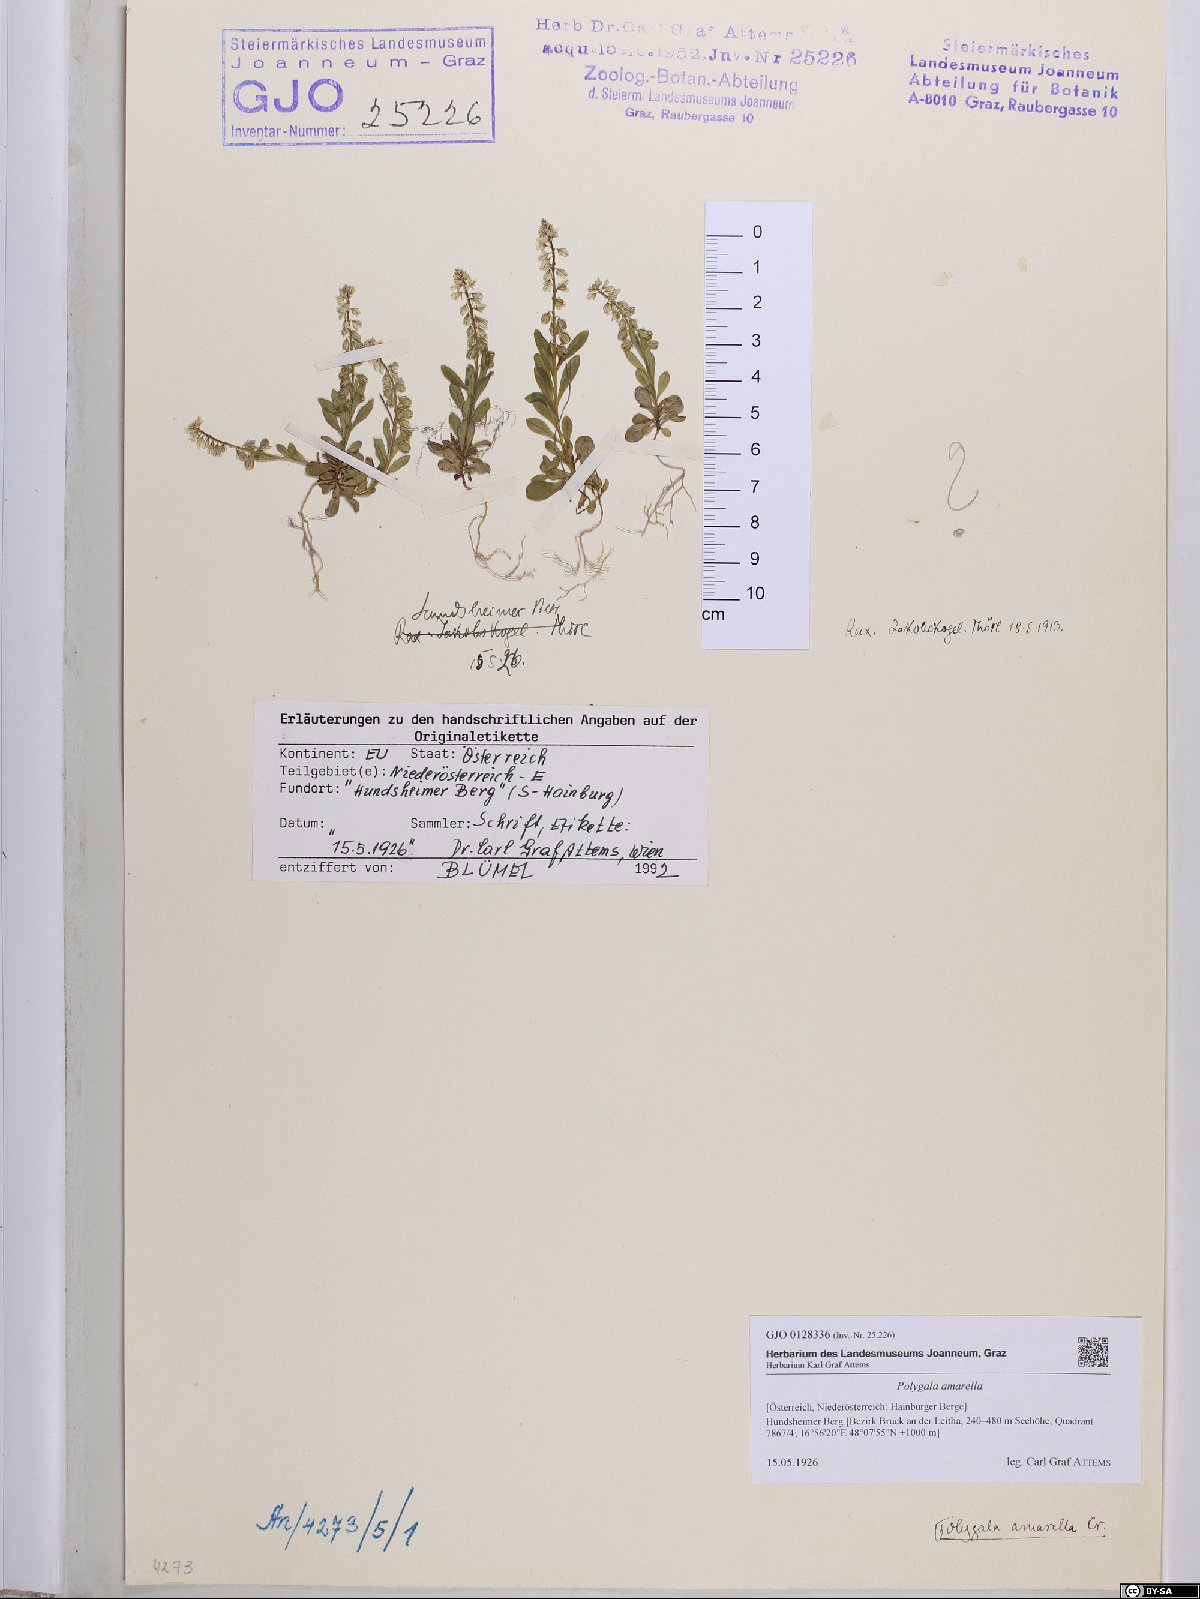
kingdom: Plantae
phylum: Tracheophyta
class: Magnoliopsida
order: Fabales
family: Polygalaceae
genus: Polygala
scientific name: Polygala amarella
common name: Dwarf milkwort
